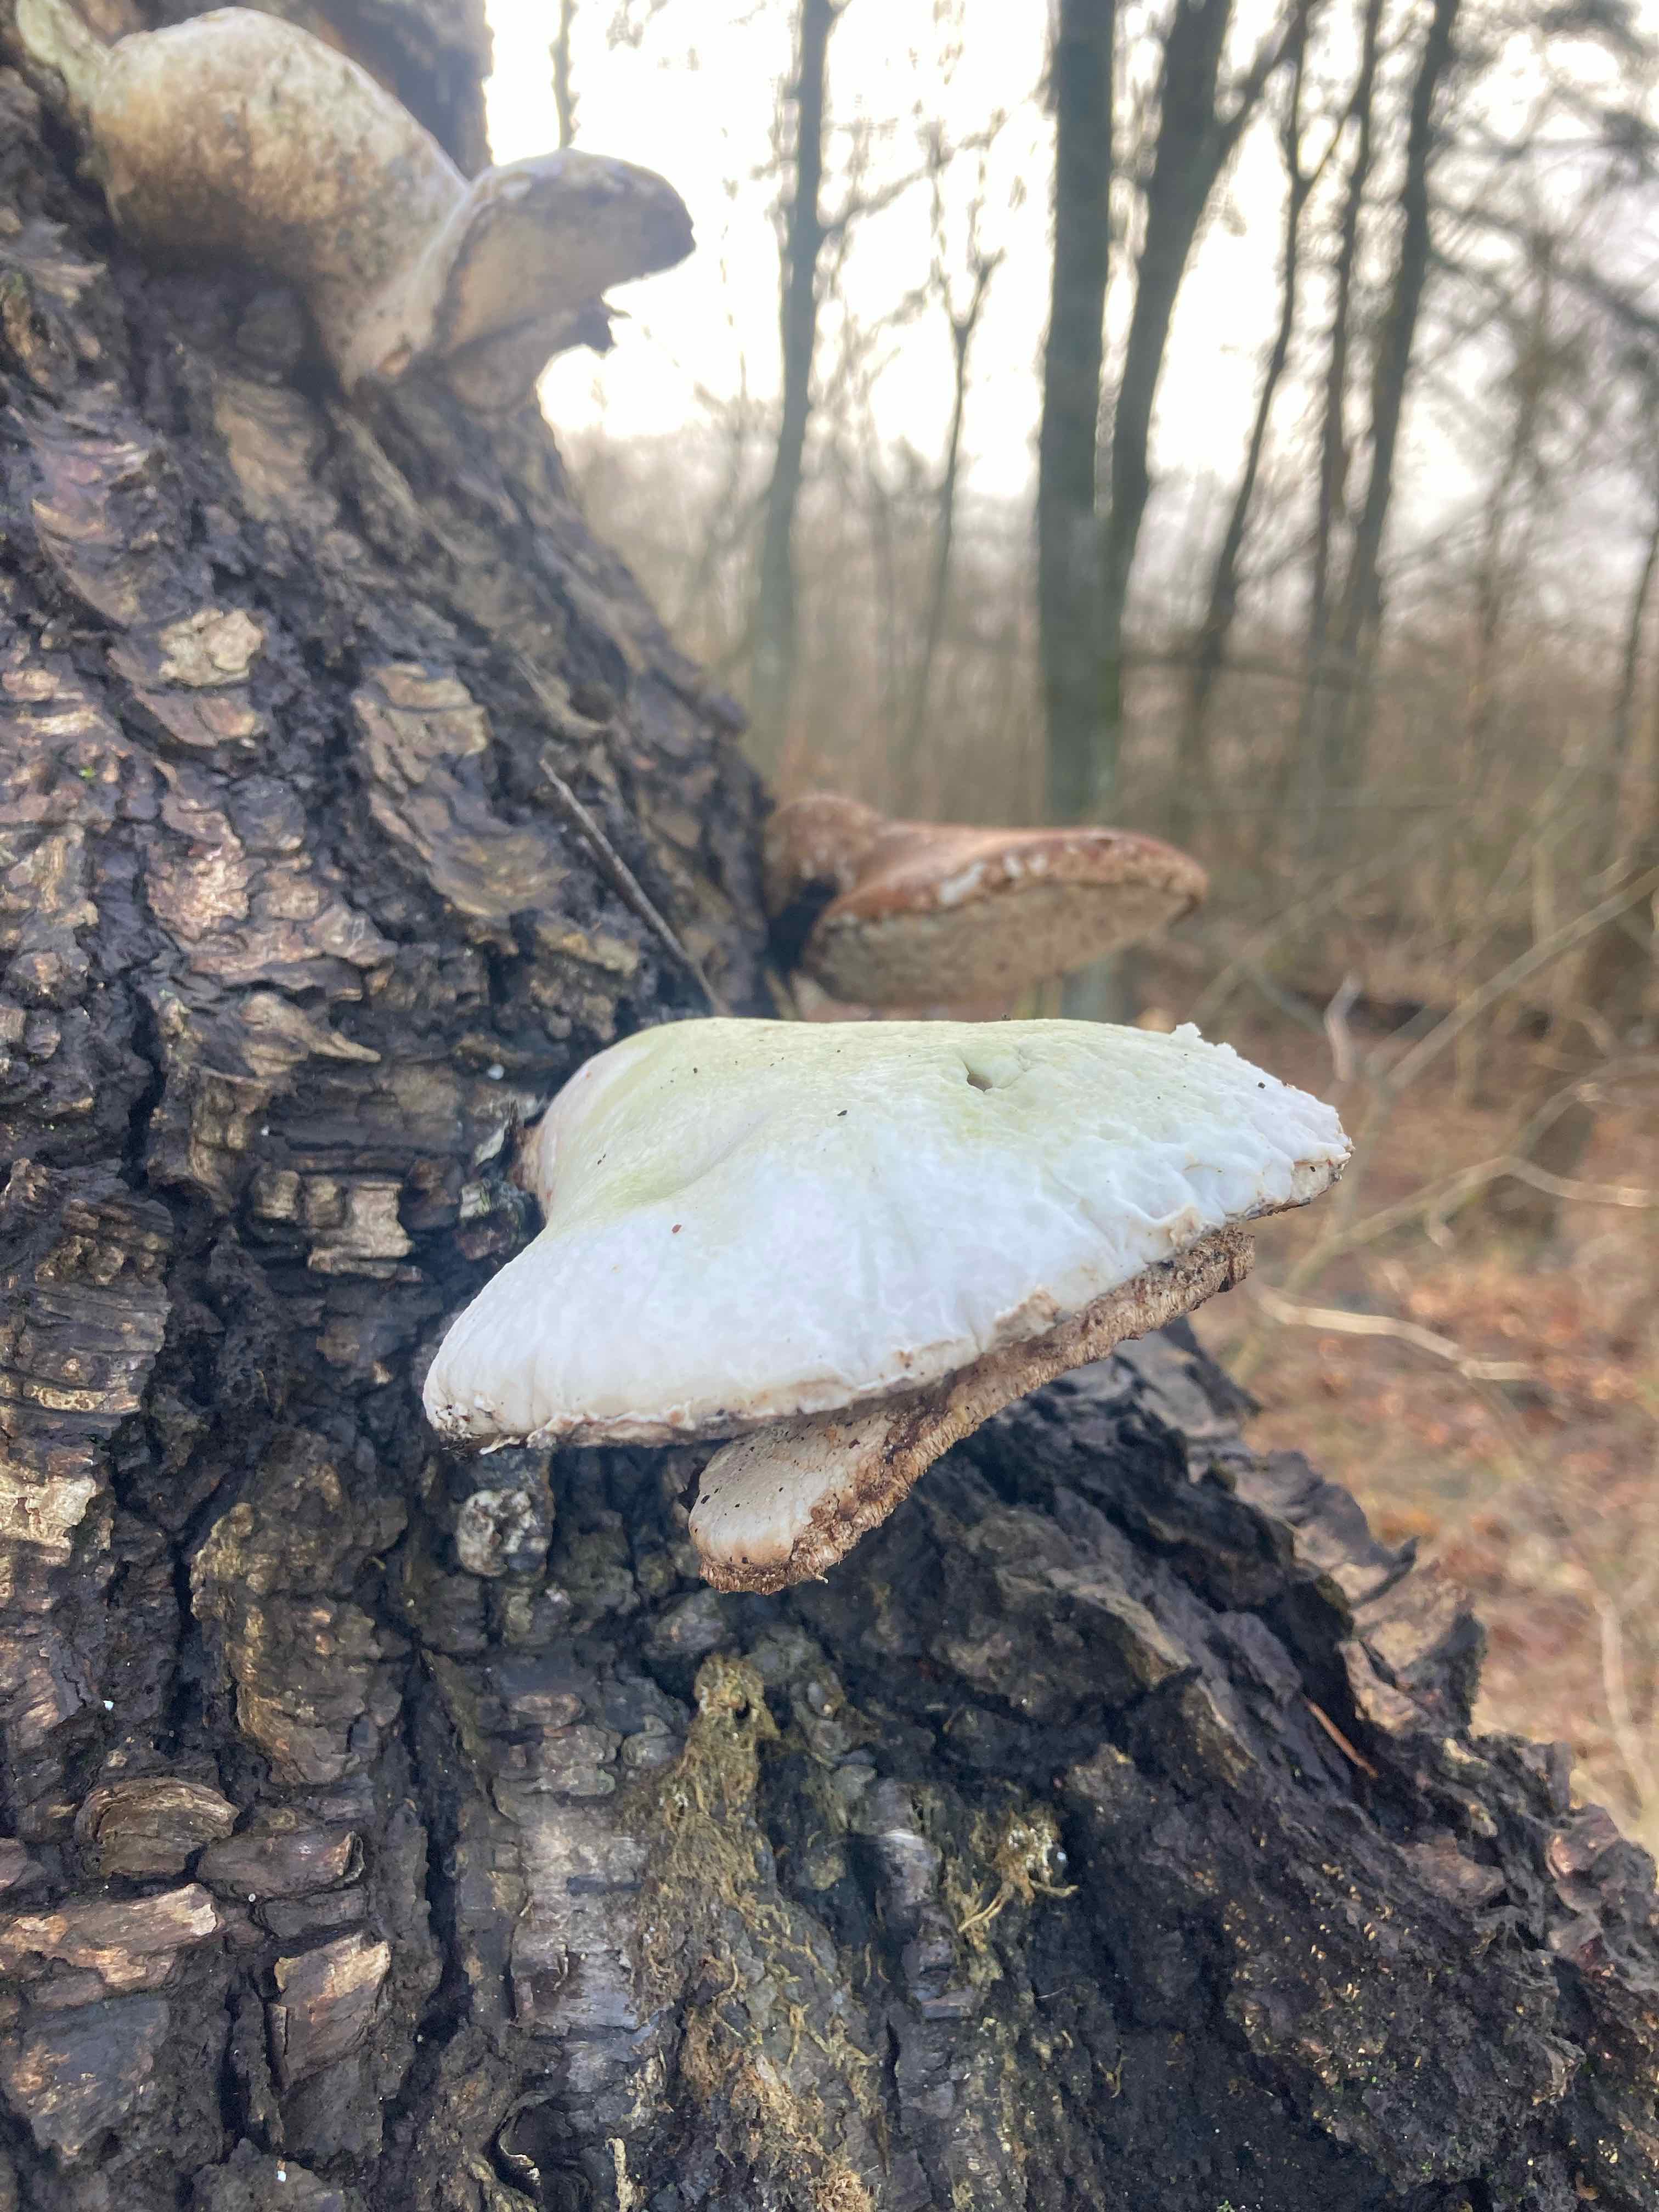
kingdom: Fungi
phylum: Basidiomycota
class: Agaricomycetes
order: Polyporales
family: Fomitopsidaceae
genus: Fomitopsis
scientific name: Fomitopsis betulina
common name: birkeporesvamp
